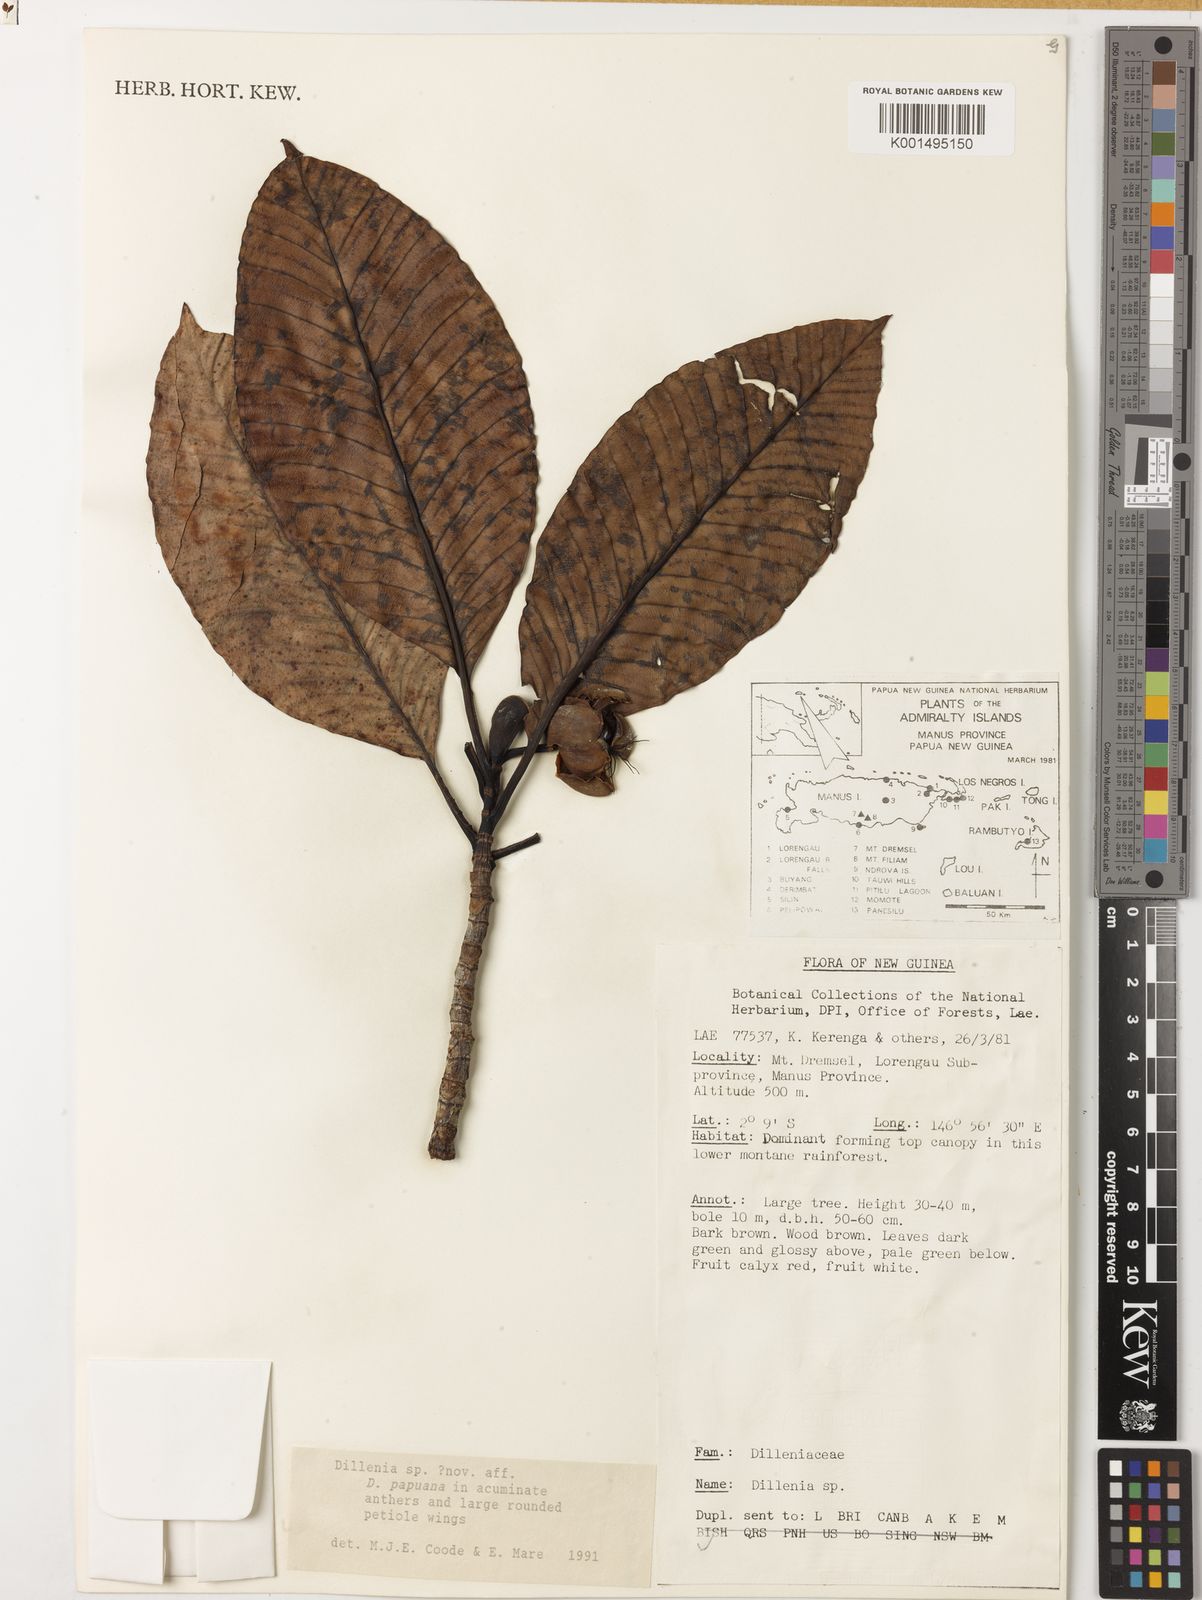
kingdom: Plantae
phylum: Tracheophyta
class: Magnoliopsida
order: Dilleniales
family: Dilleniaceae
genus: Dillenia
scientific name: Dillenia
